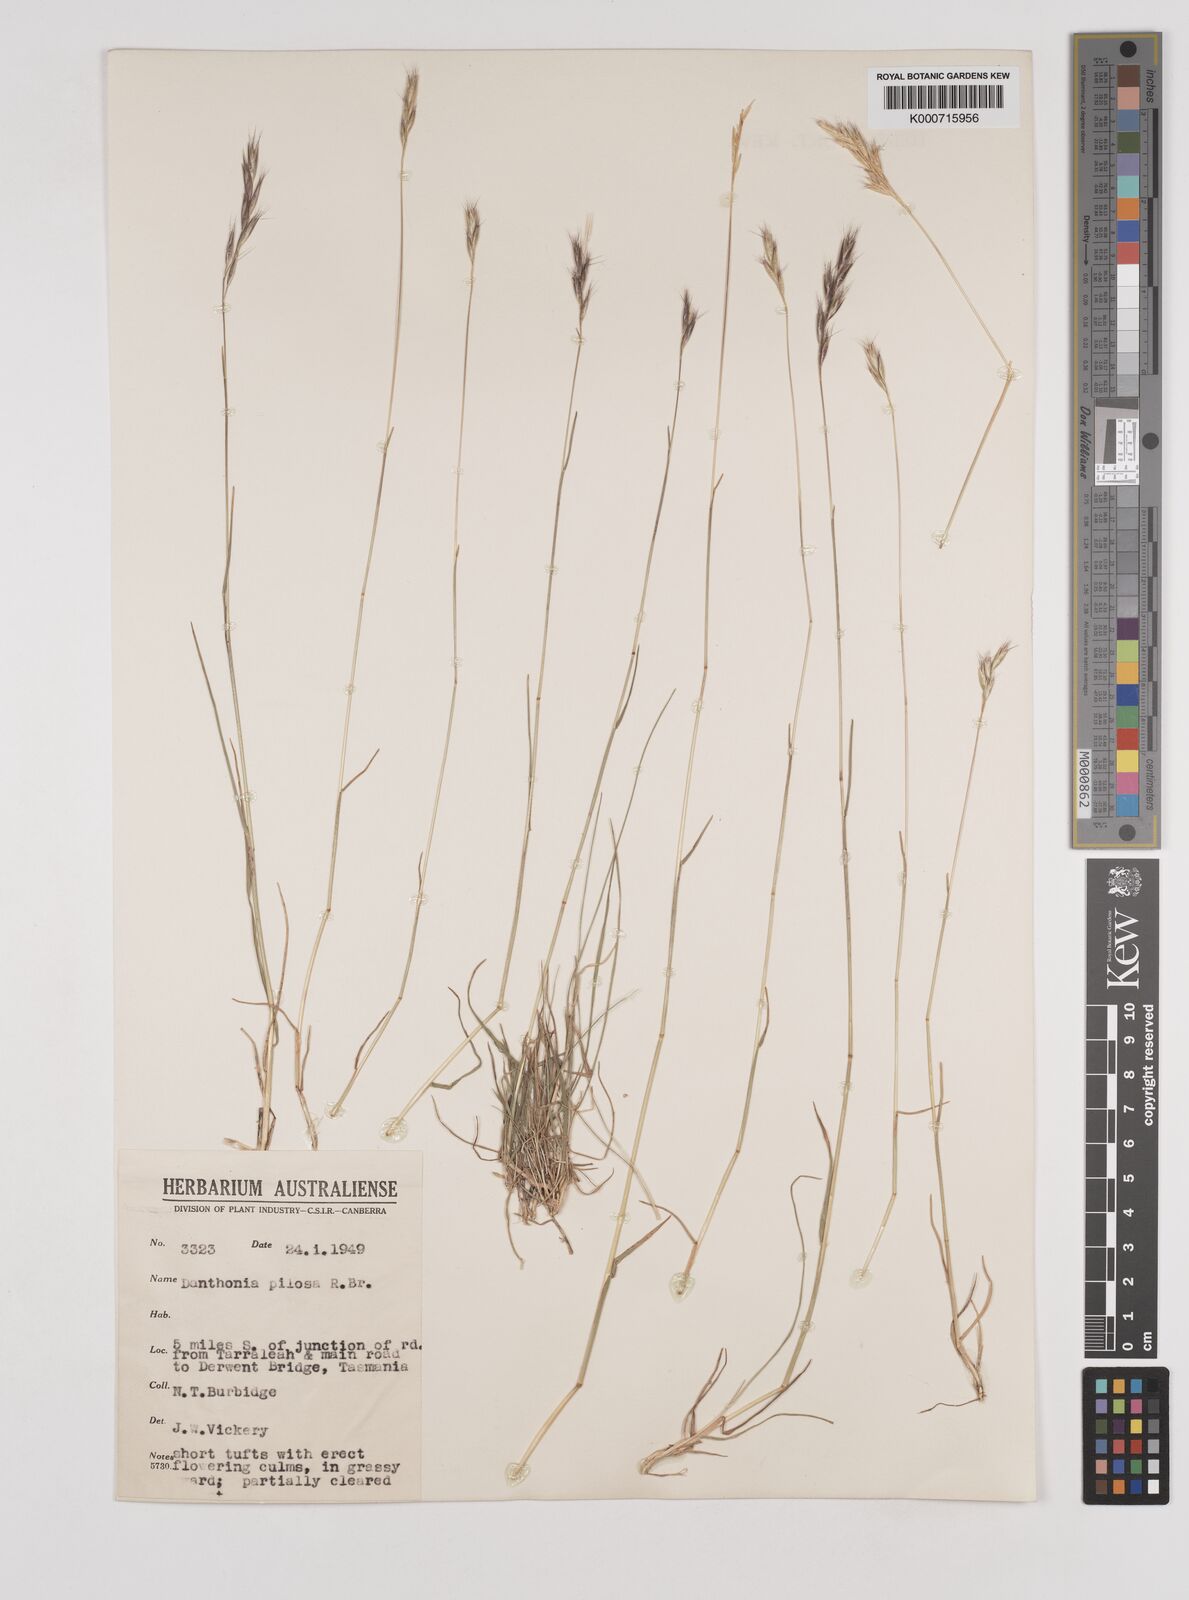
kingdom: Plantae
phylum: Tracheophyta
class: Liliopsida
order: Poales
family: Poaceae
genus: Rytidosperma
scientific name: Rytidosperma pilosum
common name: Hairy wallaby grass
